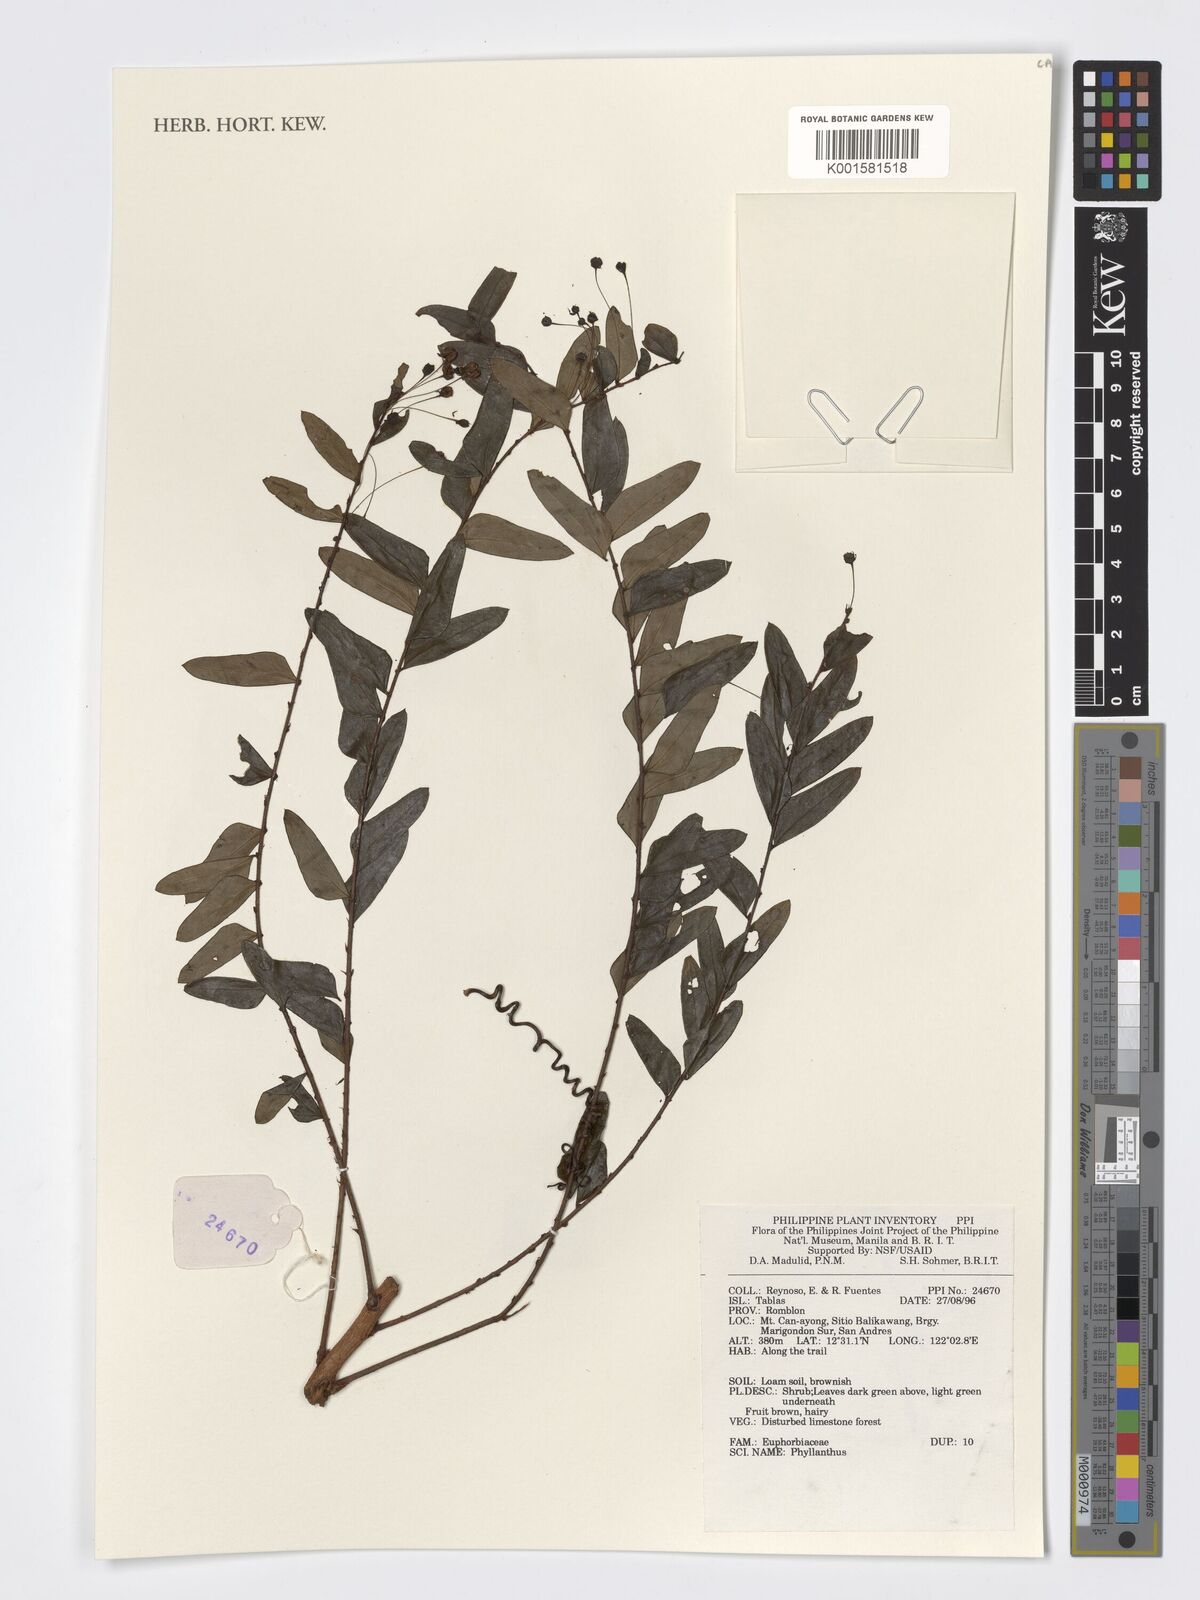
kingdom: Plantae
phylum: Tracheophyta
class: Magnoliopsida
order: Malpighiales
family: Phyllanthaceae
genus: Phyllanthus
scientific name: Phyllanthus
